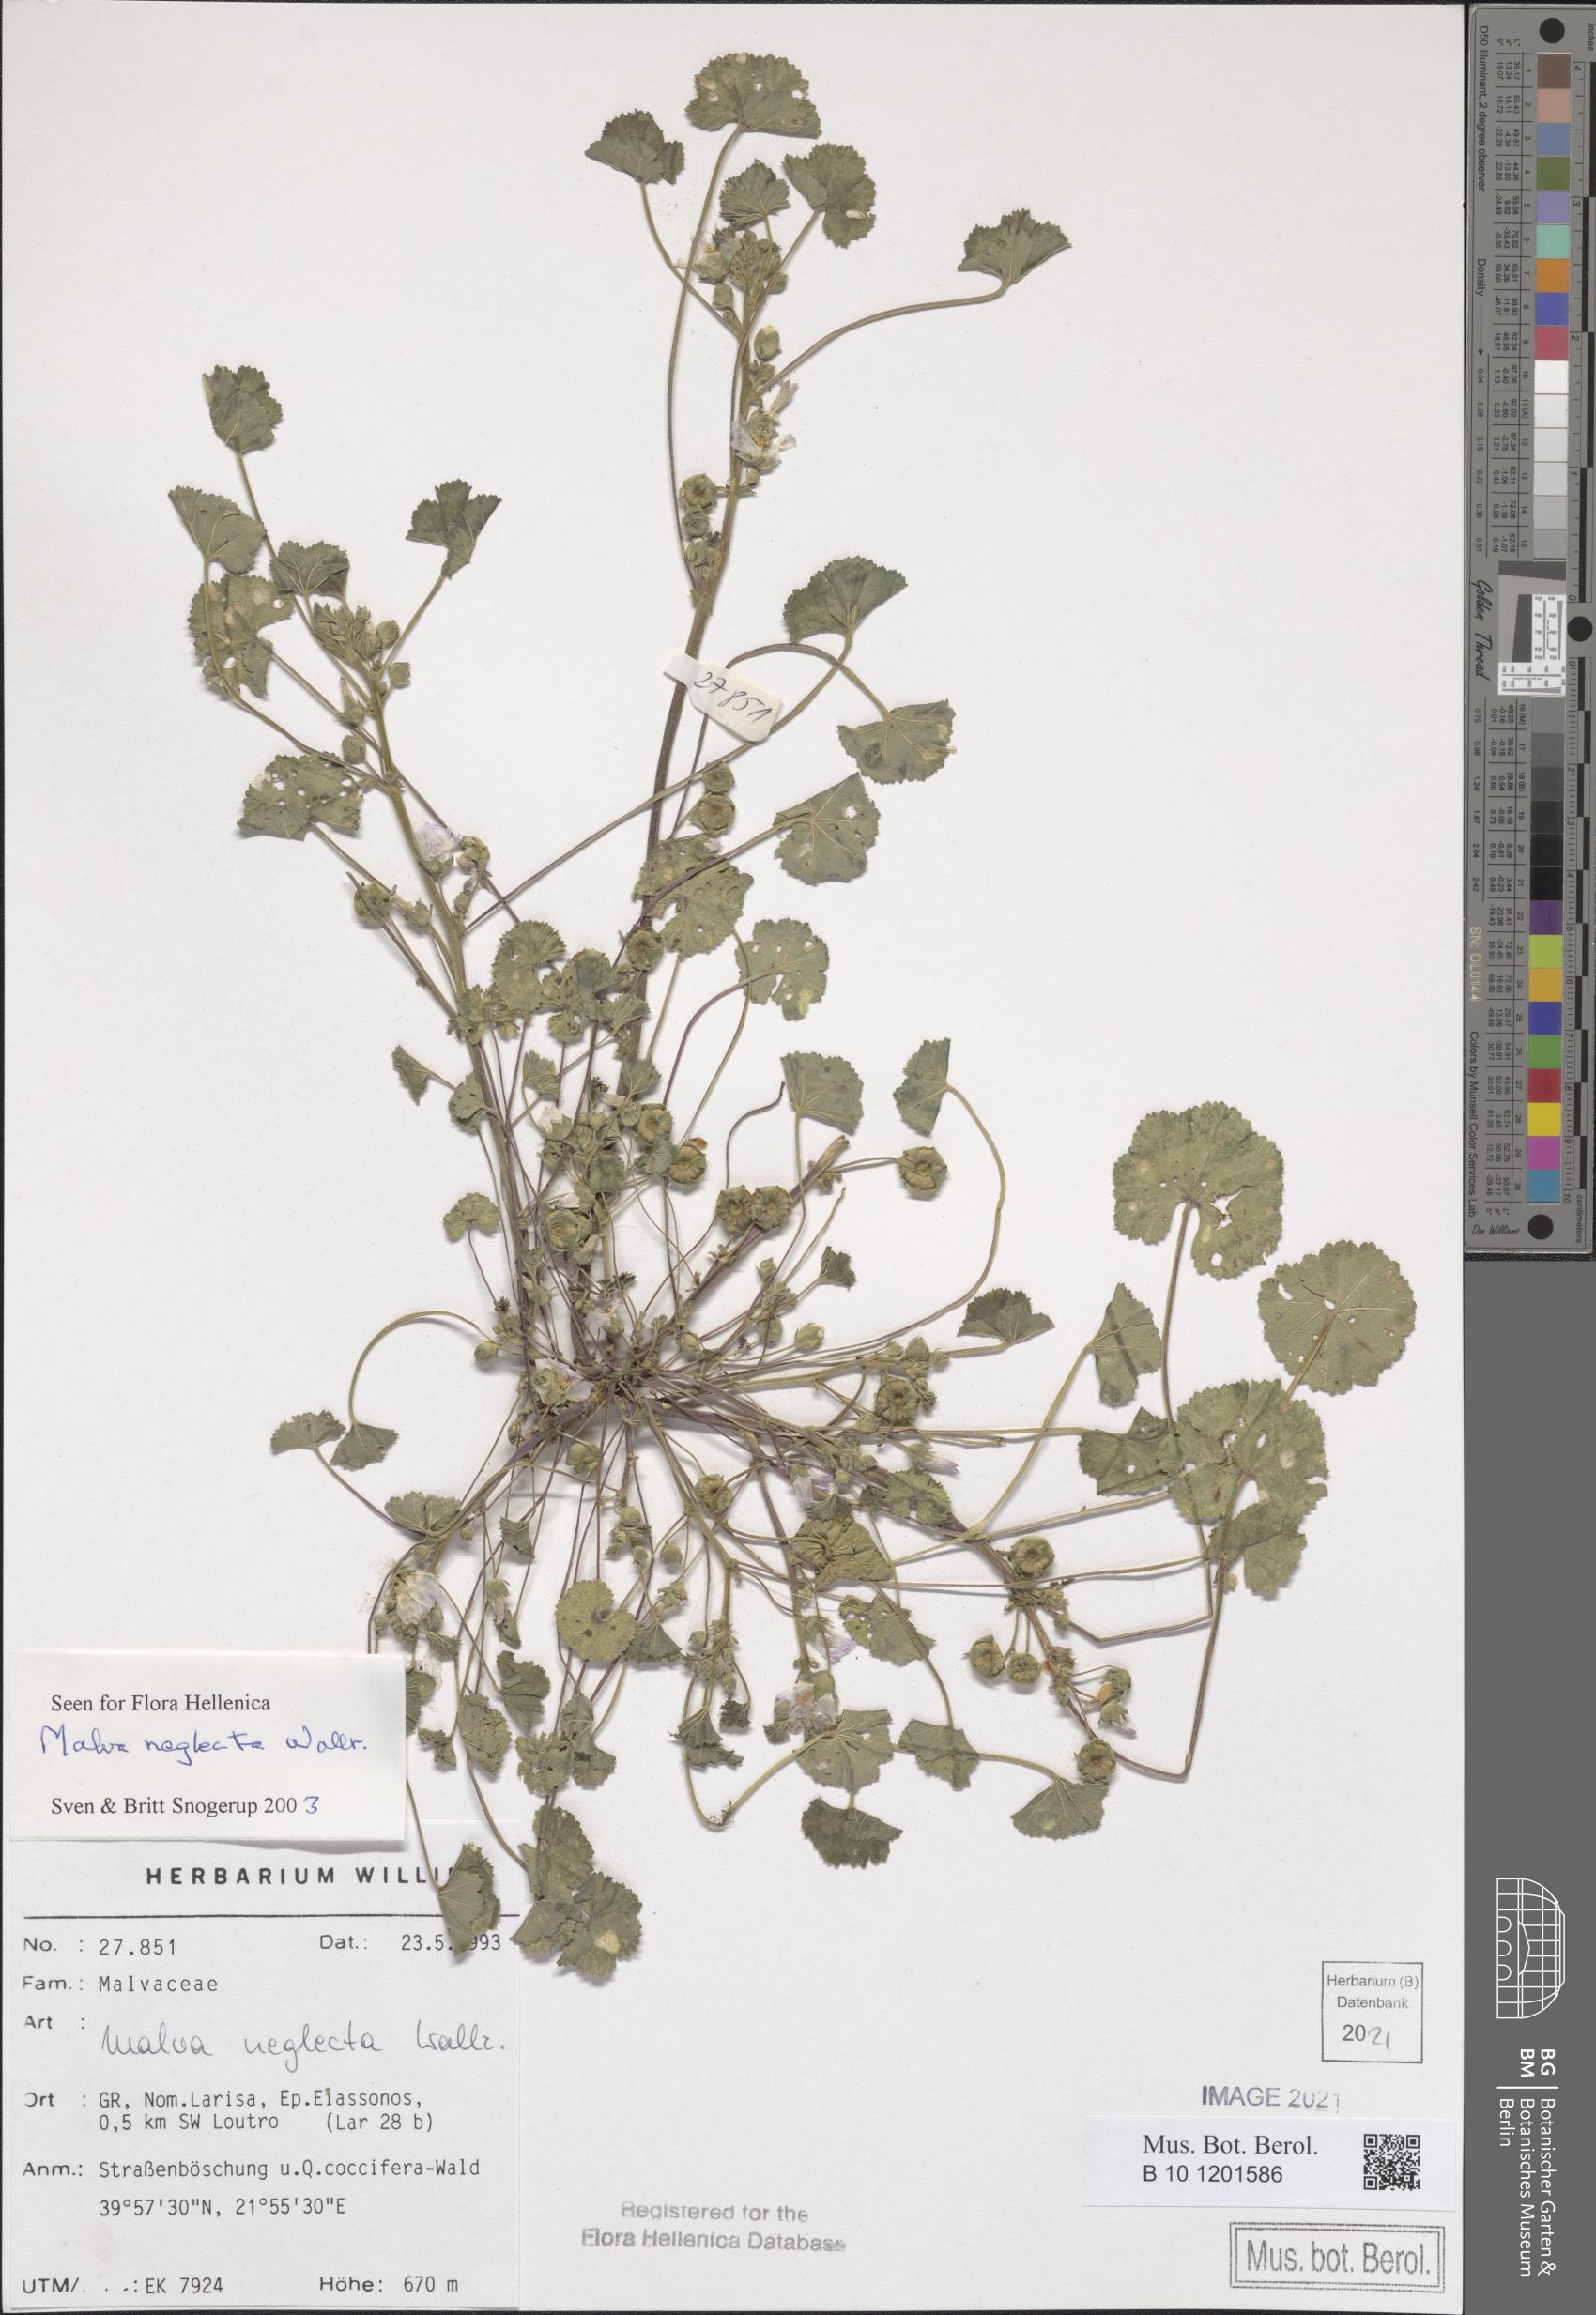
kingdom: Plantae
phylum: Tracheophyta
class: Magnoliopsida
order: Malvales
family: Malvaceae
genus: Malva
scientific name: Malva neglecta
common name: Common mallow
